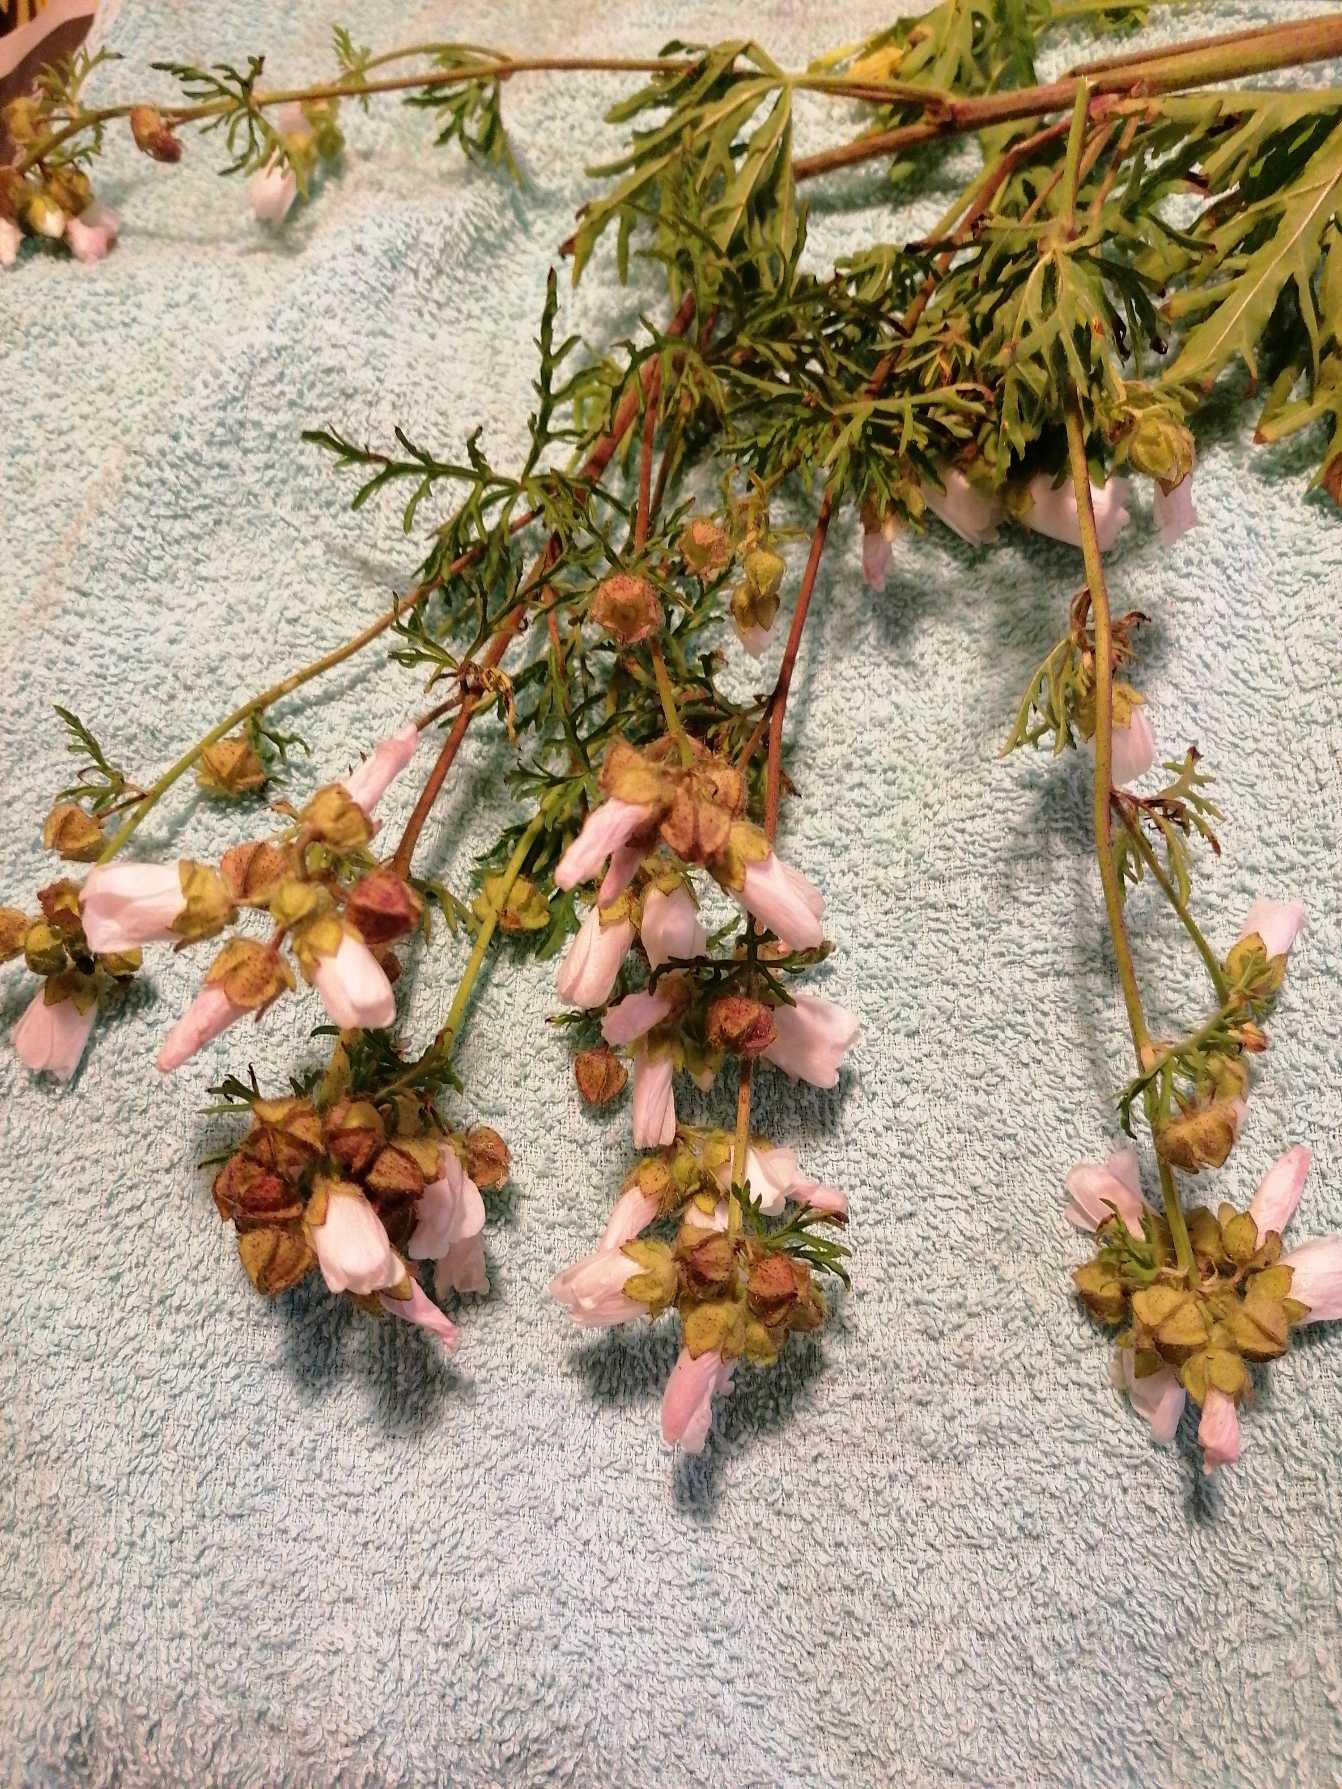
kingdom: Plantae
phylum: Tracheophyta
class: Magnoliopsida
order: Malvales
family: Malvaceae
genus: Malva
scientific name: Malva
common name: Katostslægten
